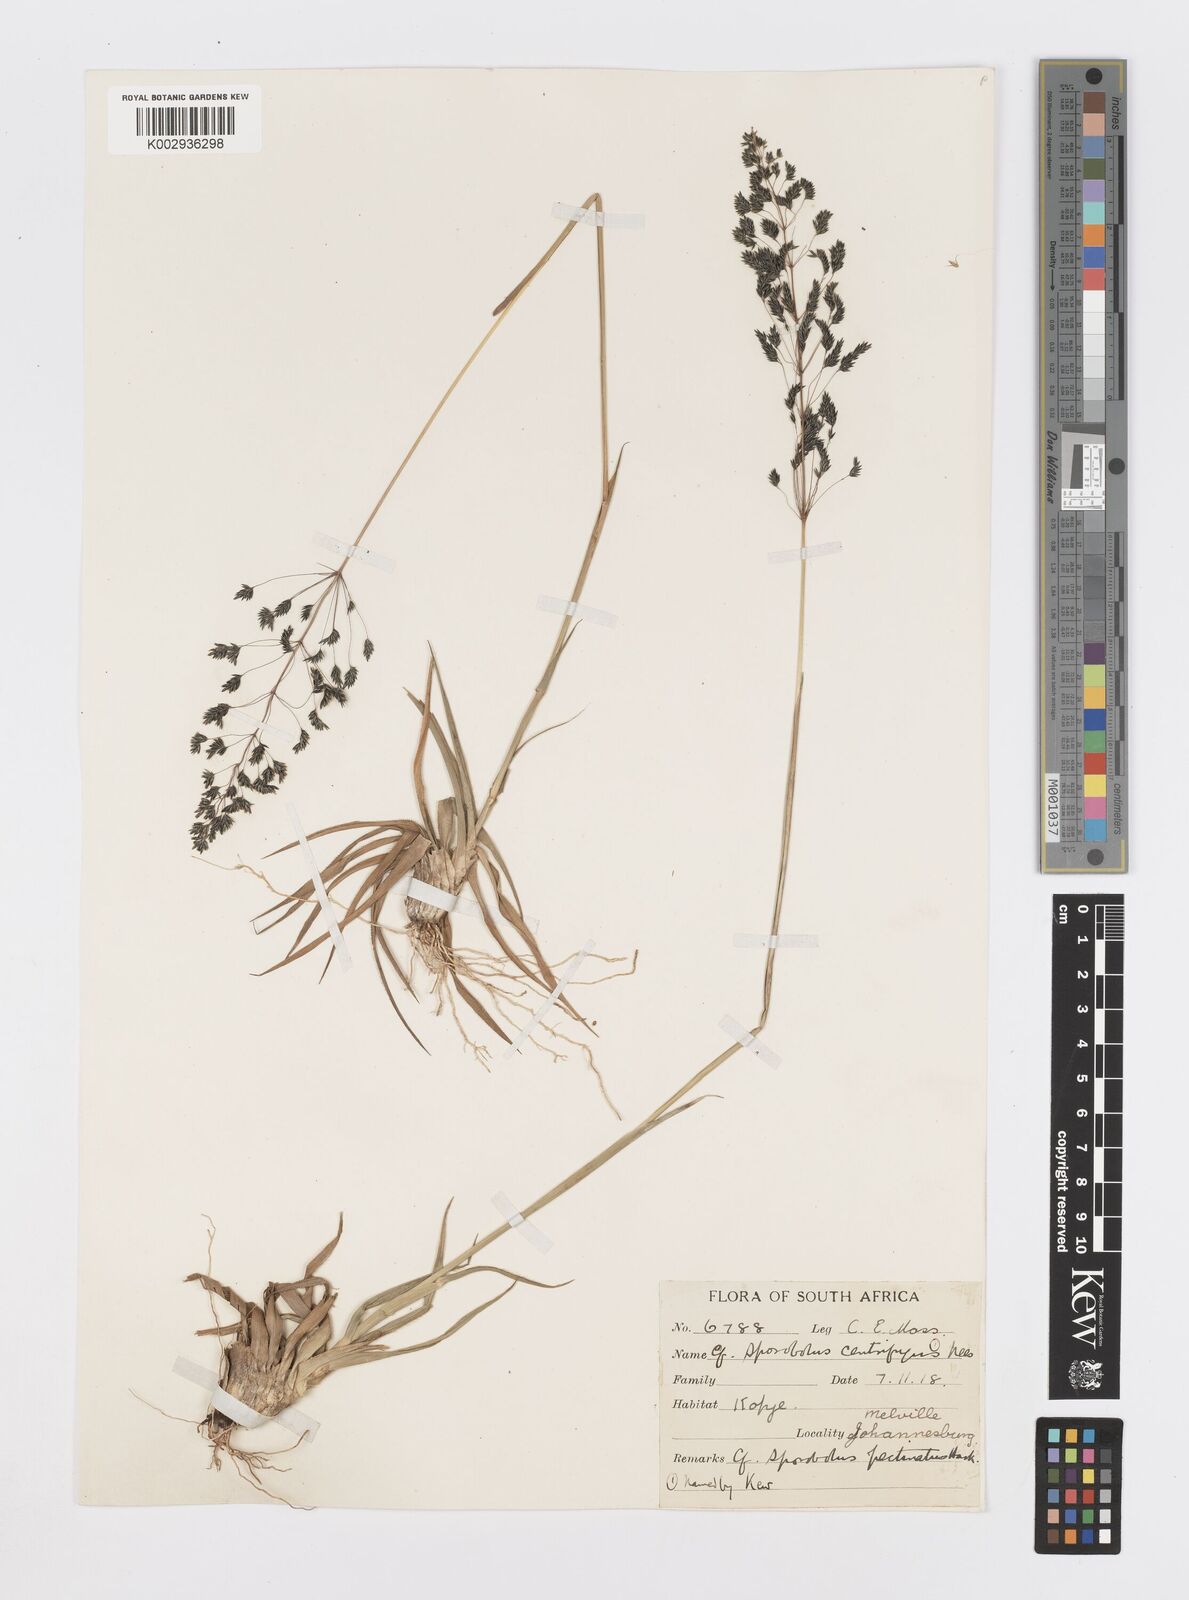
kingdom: Plantae
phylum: Tracheophyta
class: Liliopsida
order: Poales
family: Poaceae
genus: Sporobolus
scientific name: Sporobolus pectinatus
